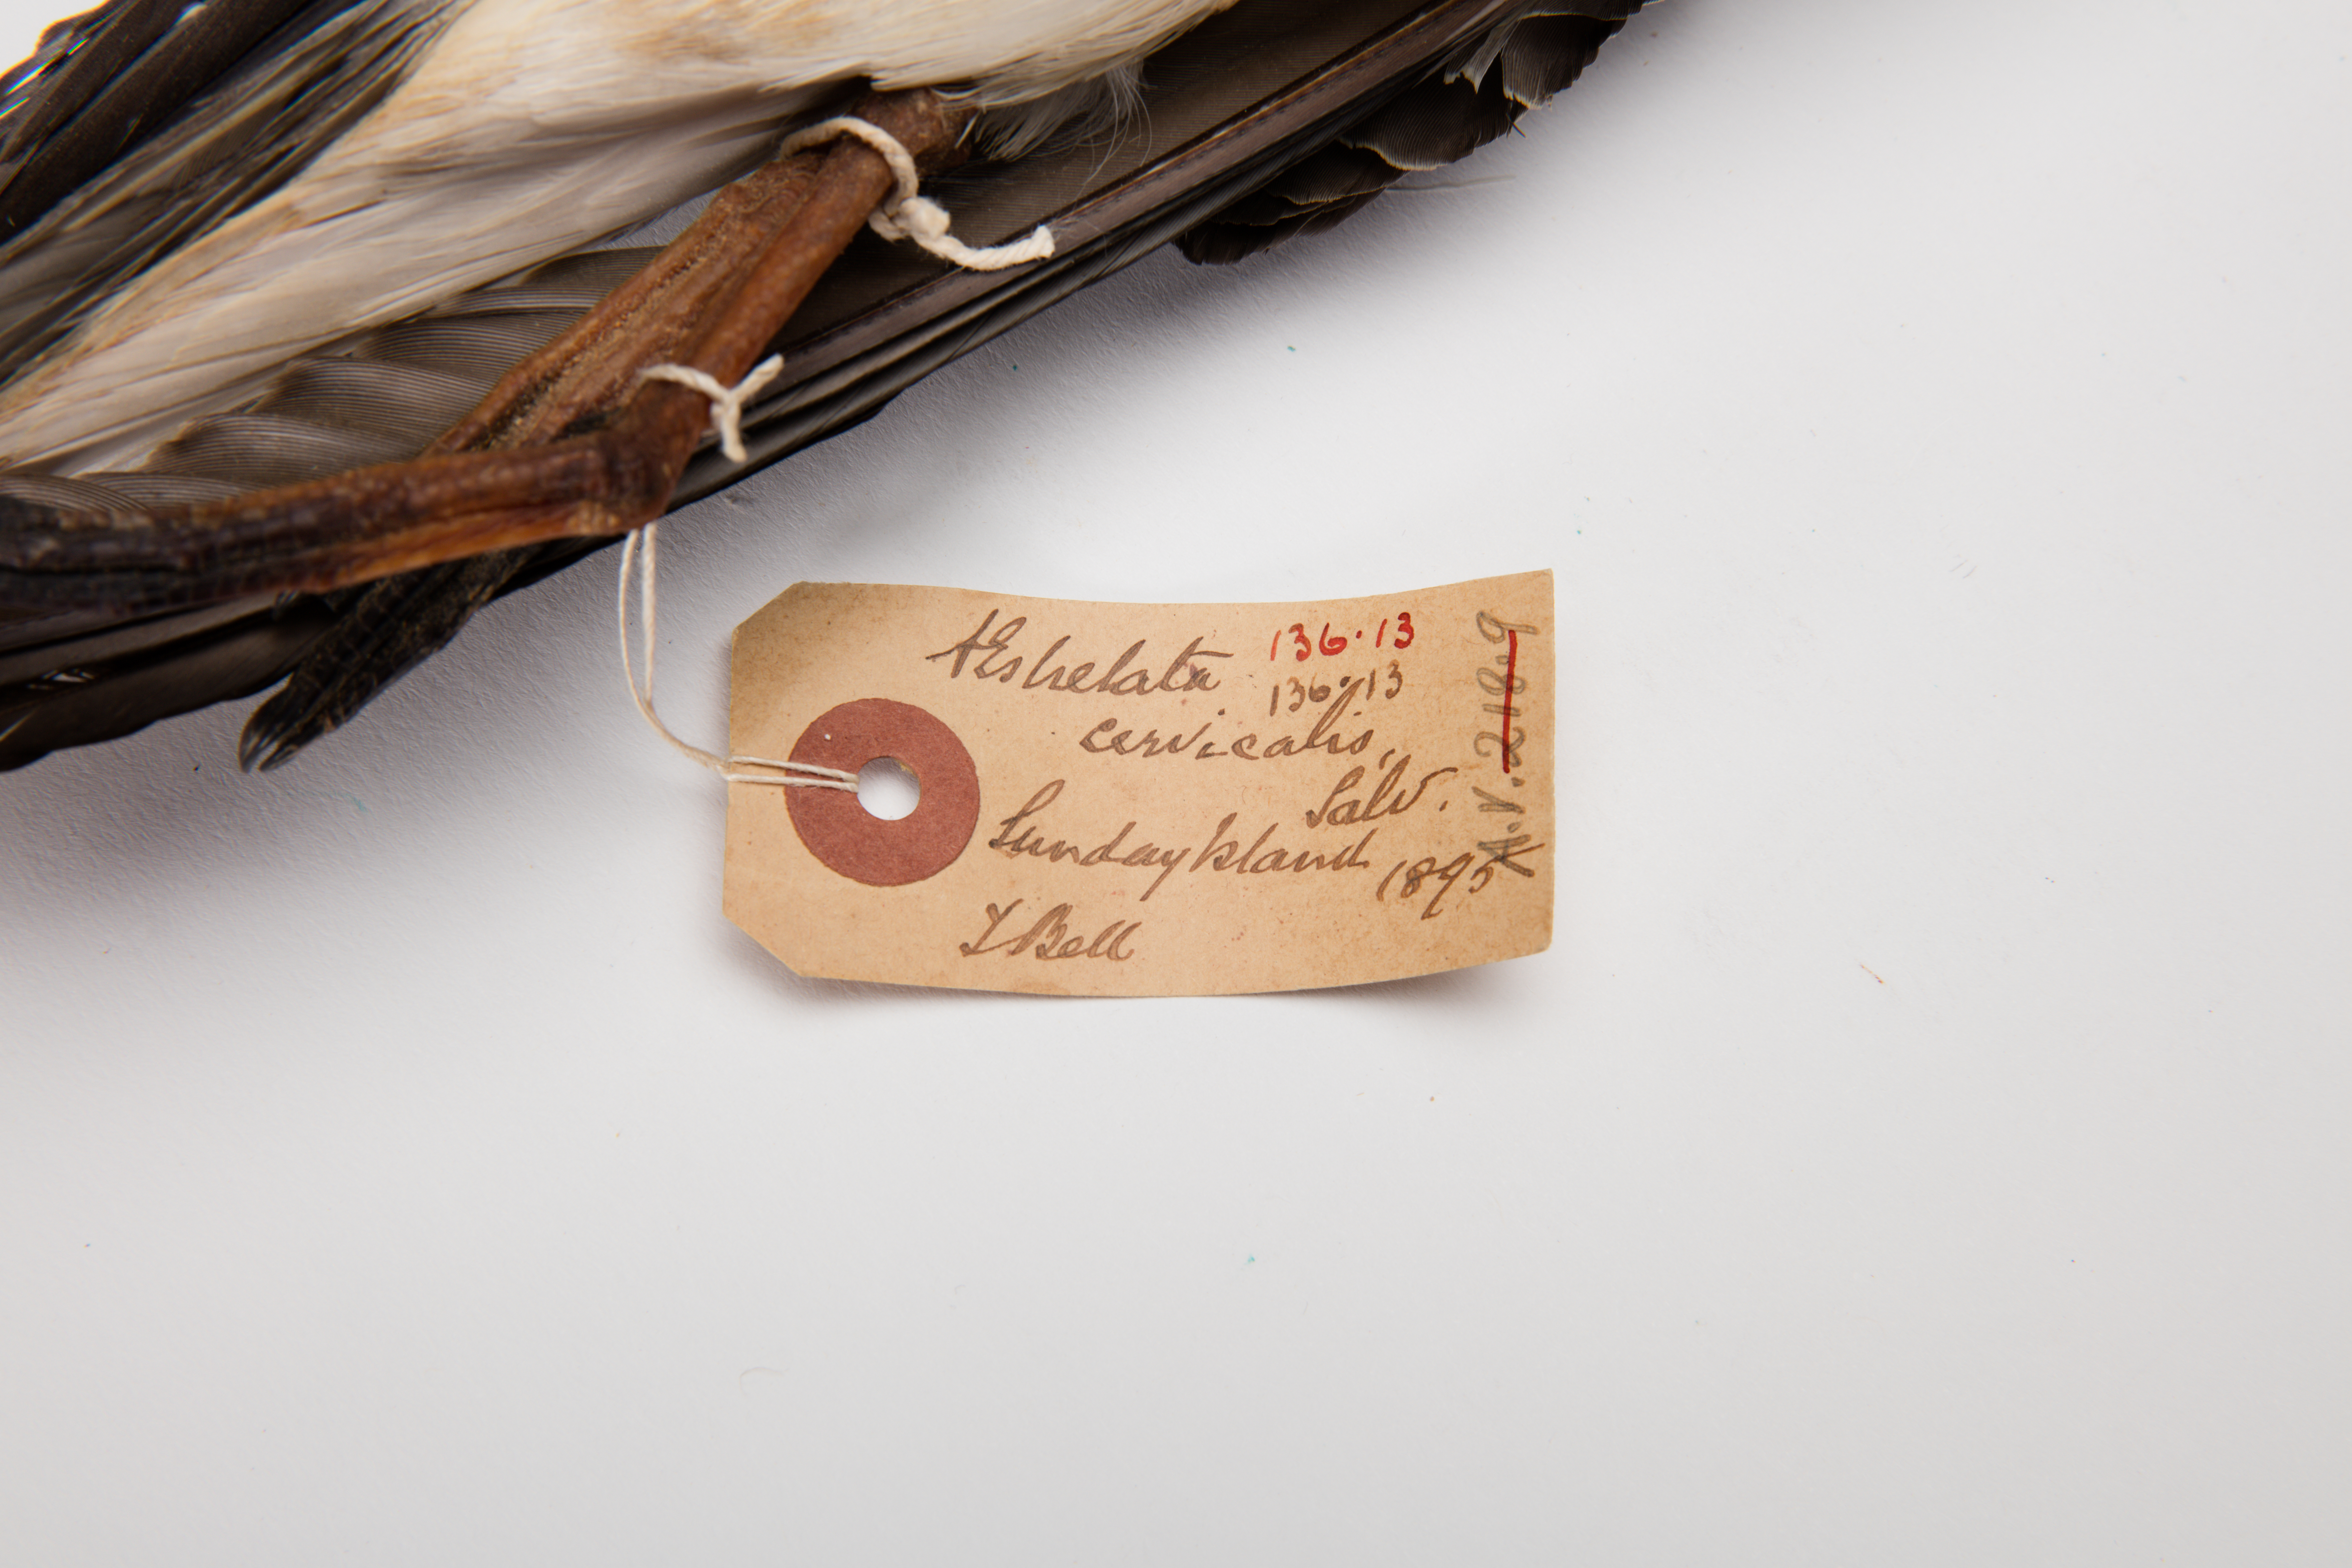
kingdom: Animalia
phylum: Chordata
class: Aves
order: Procellariiformes
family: Procellariidae
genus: Pterodroma
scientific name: Pterodroma cervicalis
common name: White-necked petrel
